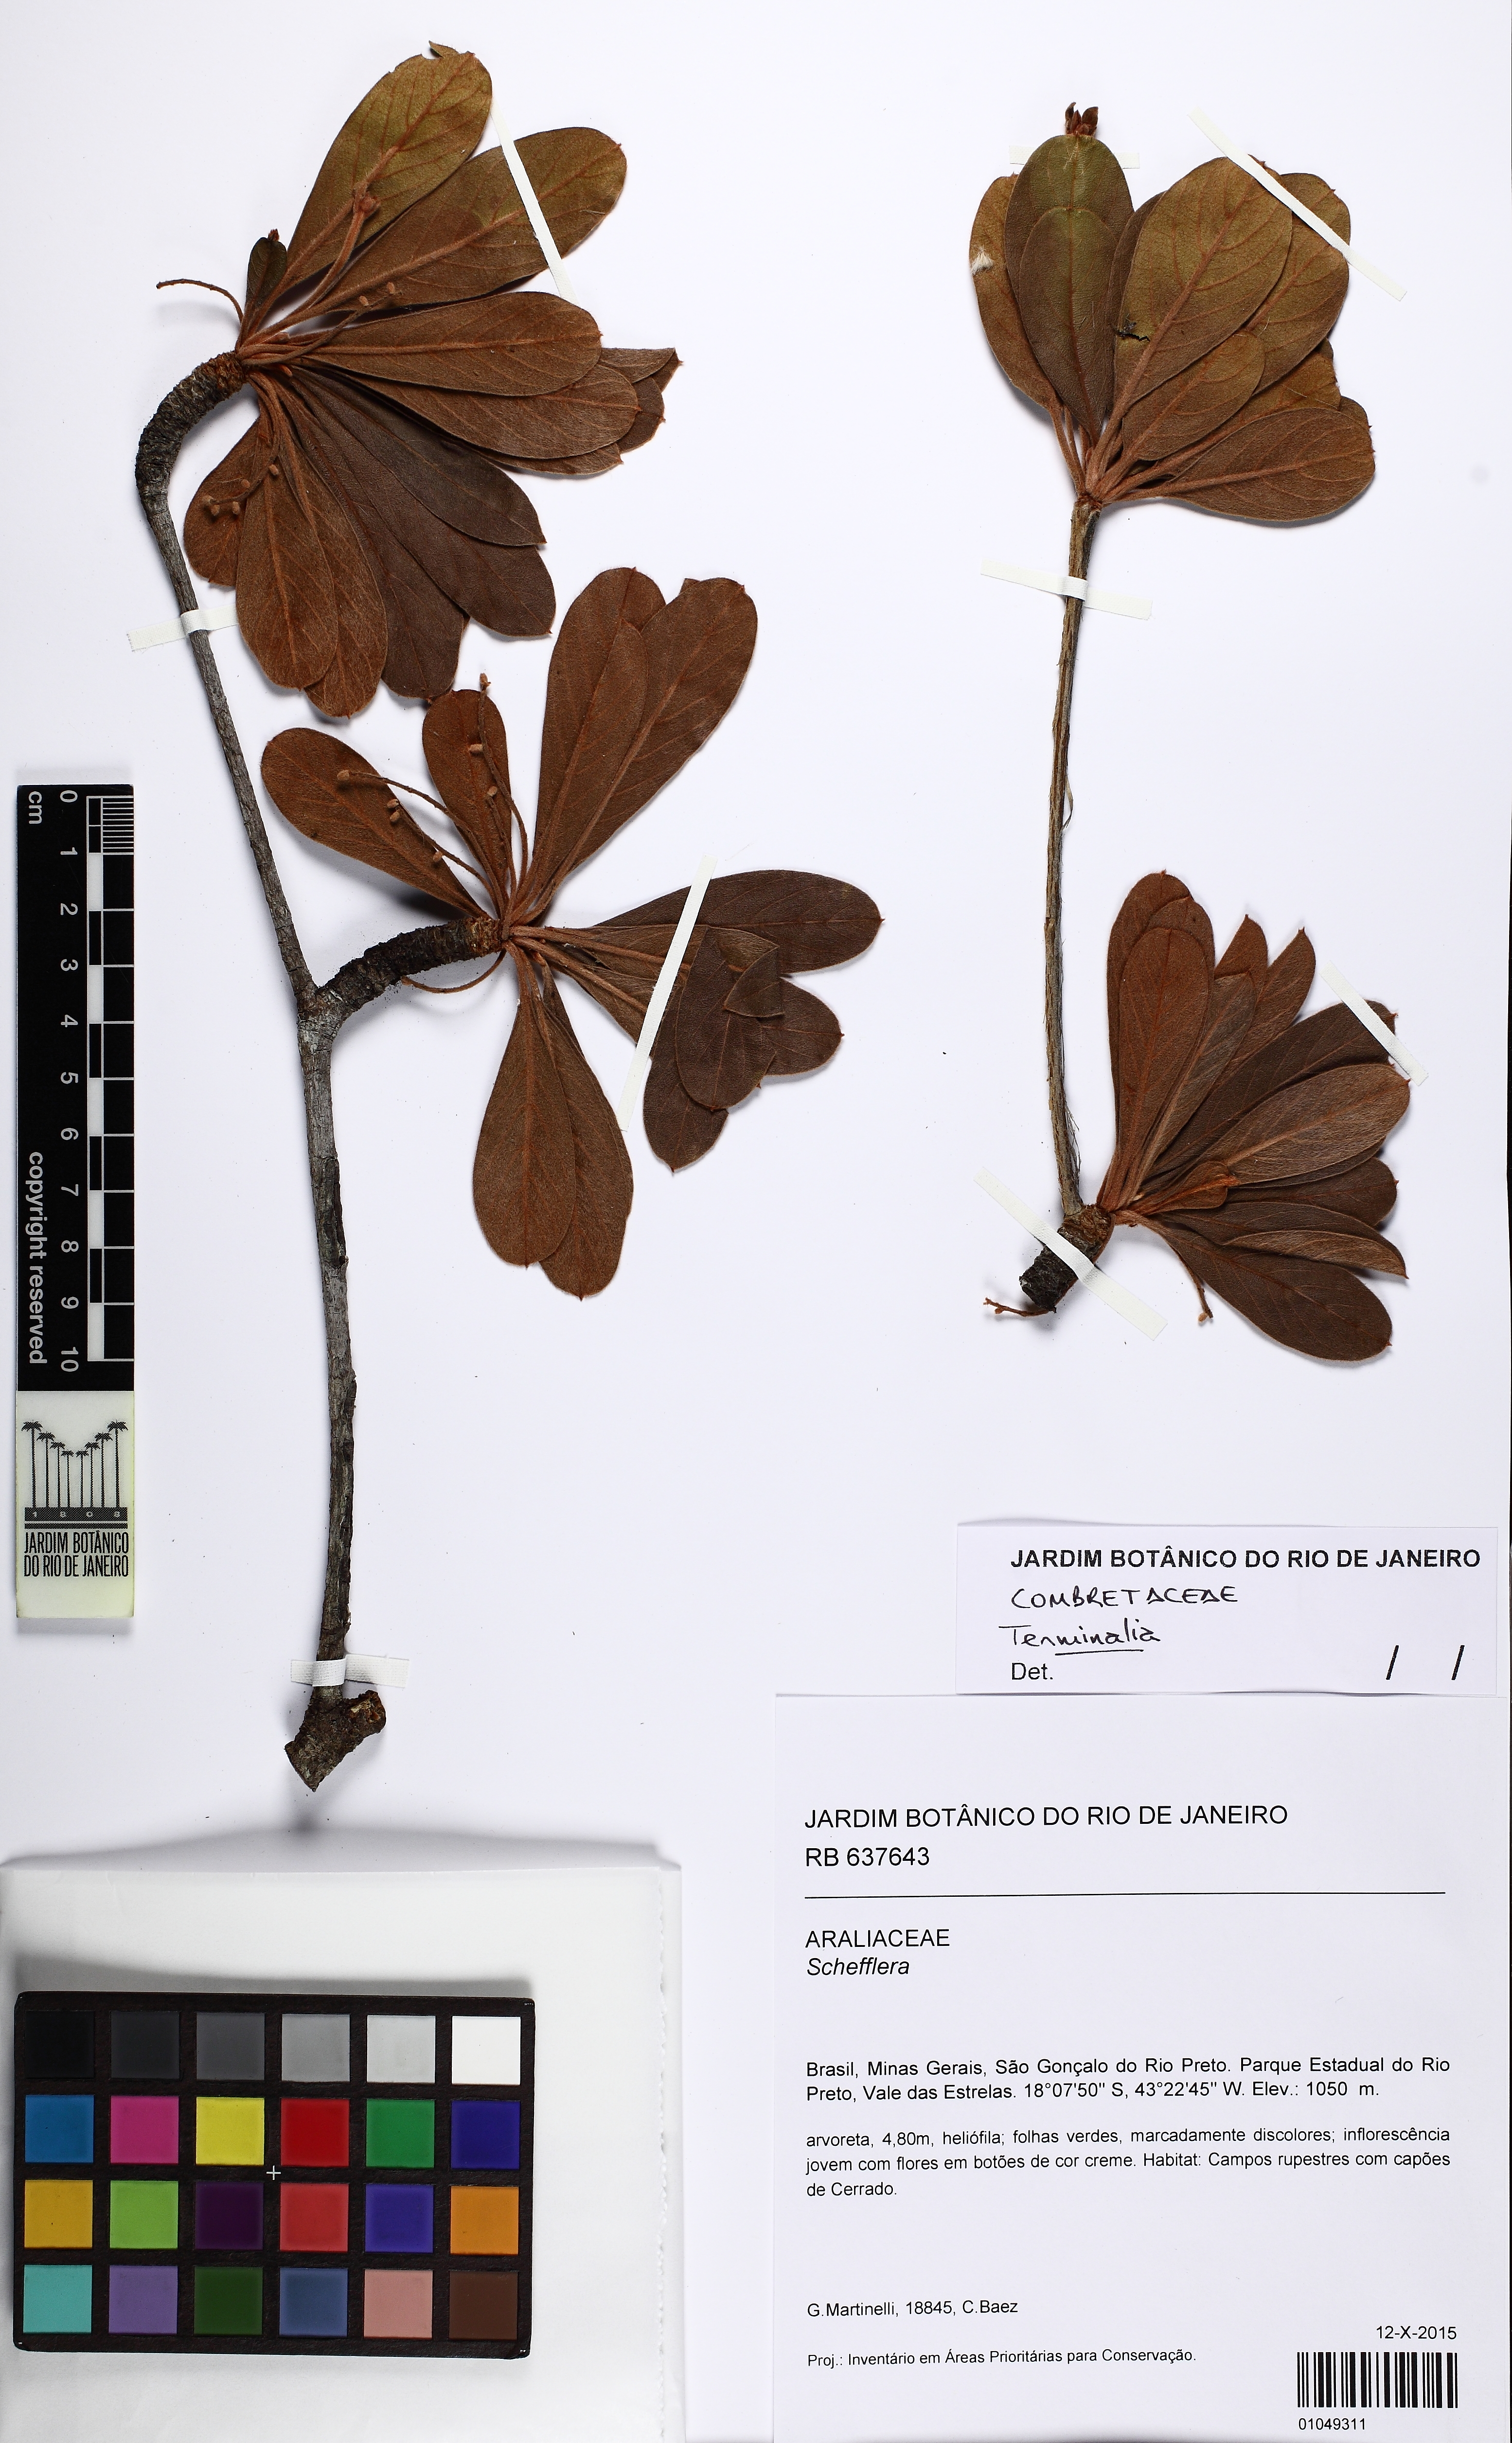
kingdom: Plantae
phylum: Tracheophyta
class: Magnoliopsida
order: Myrtales
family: Combretaceae
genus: Terminalia
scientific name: Terminalia
